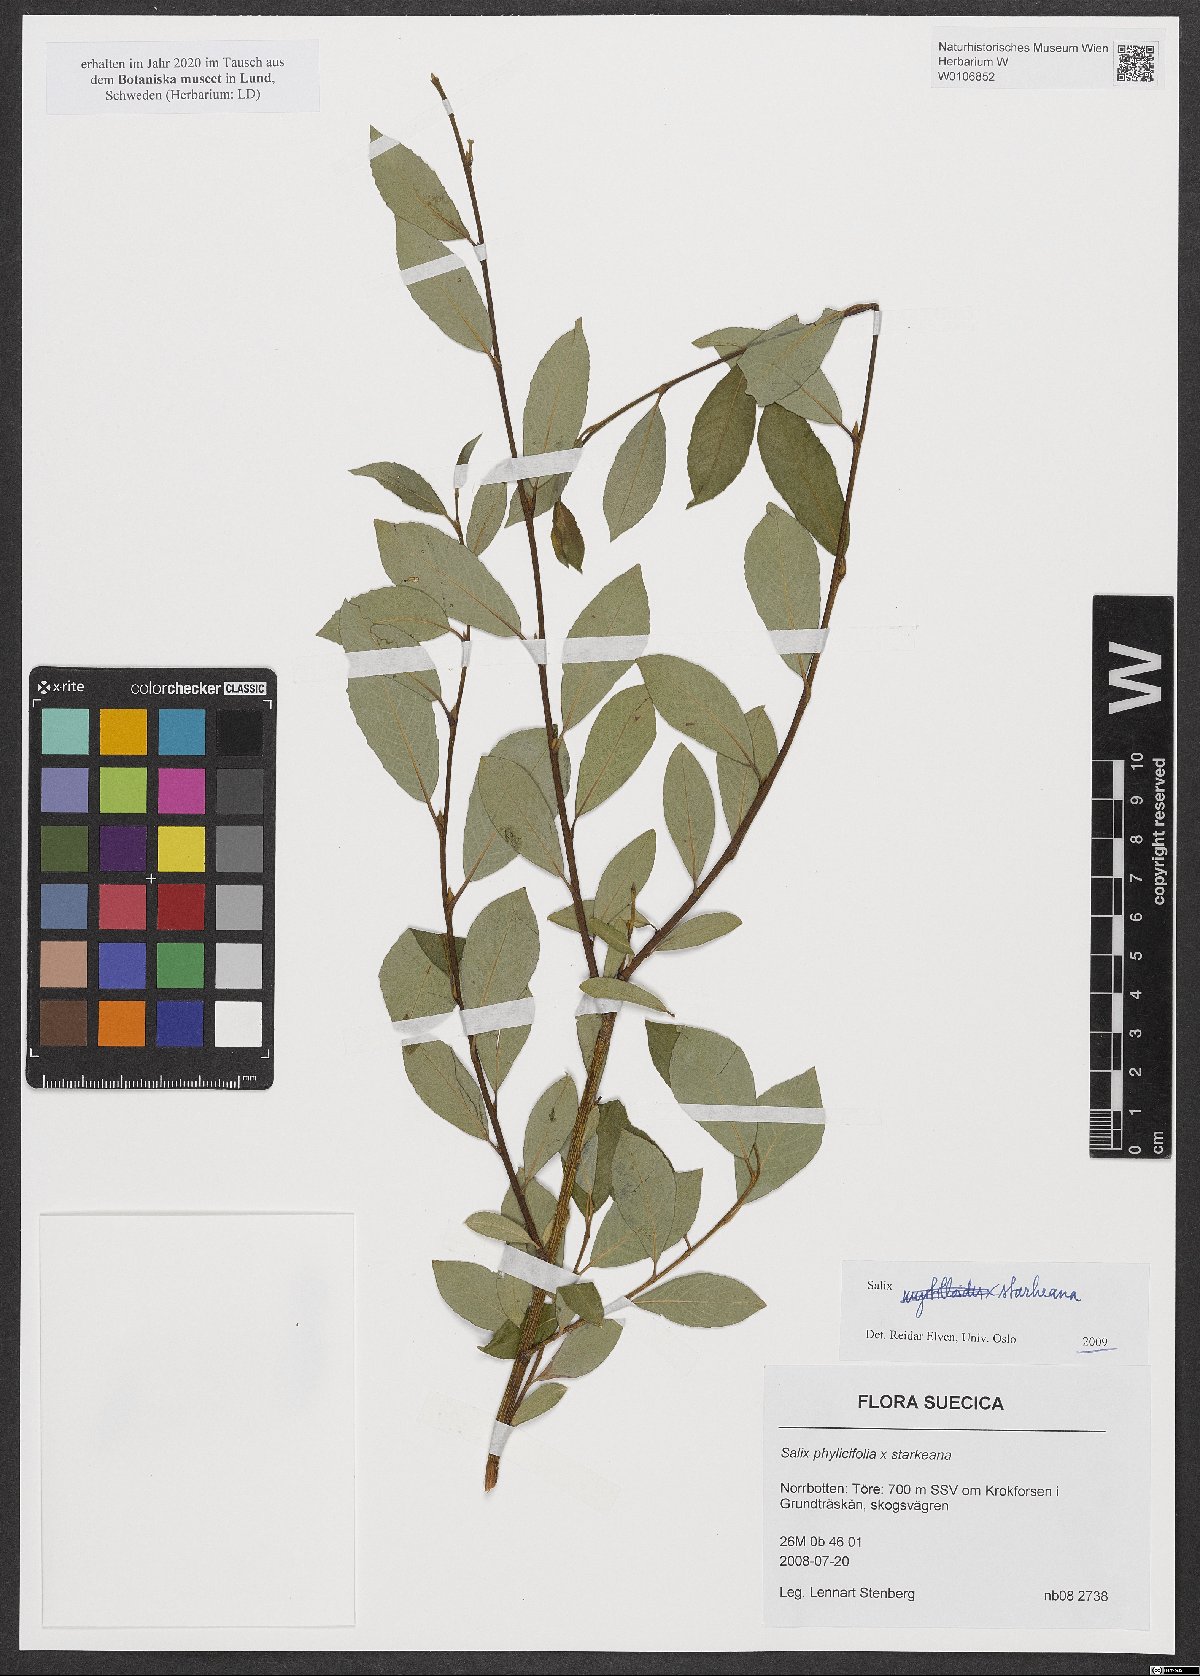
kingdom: Plantae
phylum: Tracheophyta
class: Magnoliopsida
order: Malpighiales
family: Salicaceae
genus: Salix
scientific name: Salix starkeana
